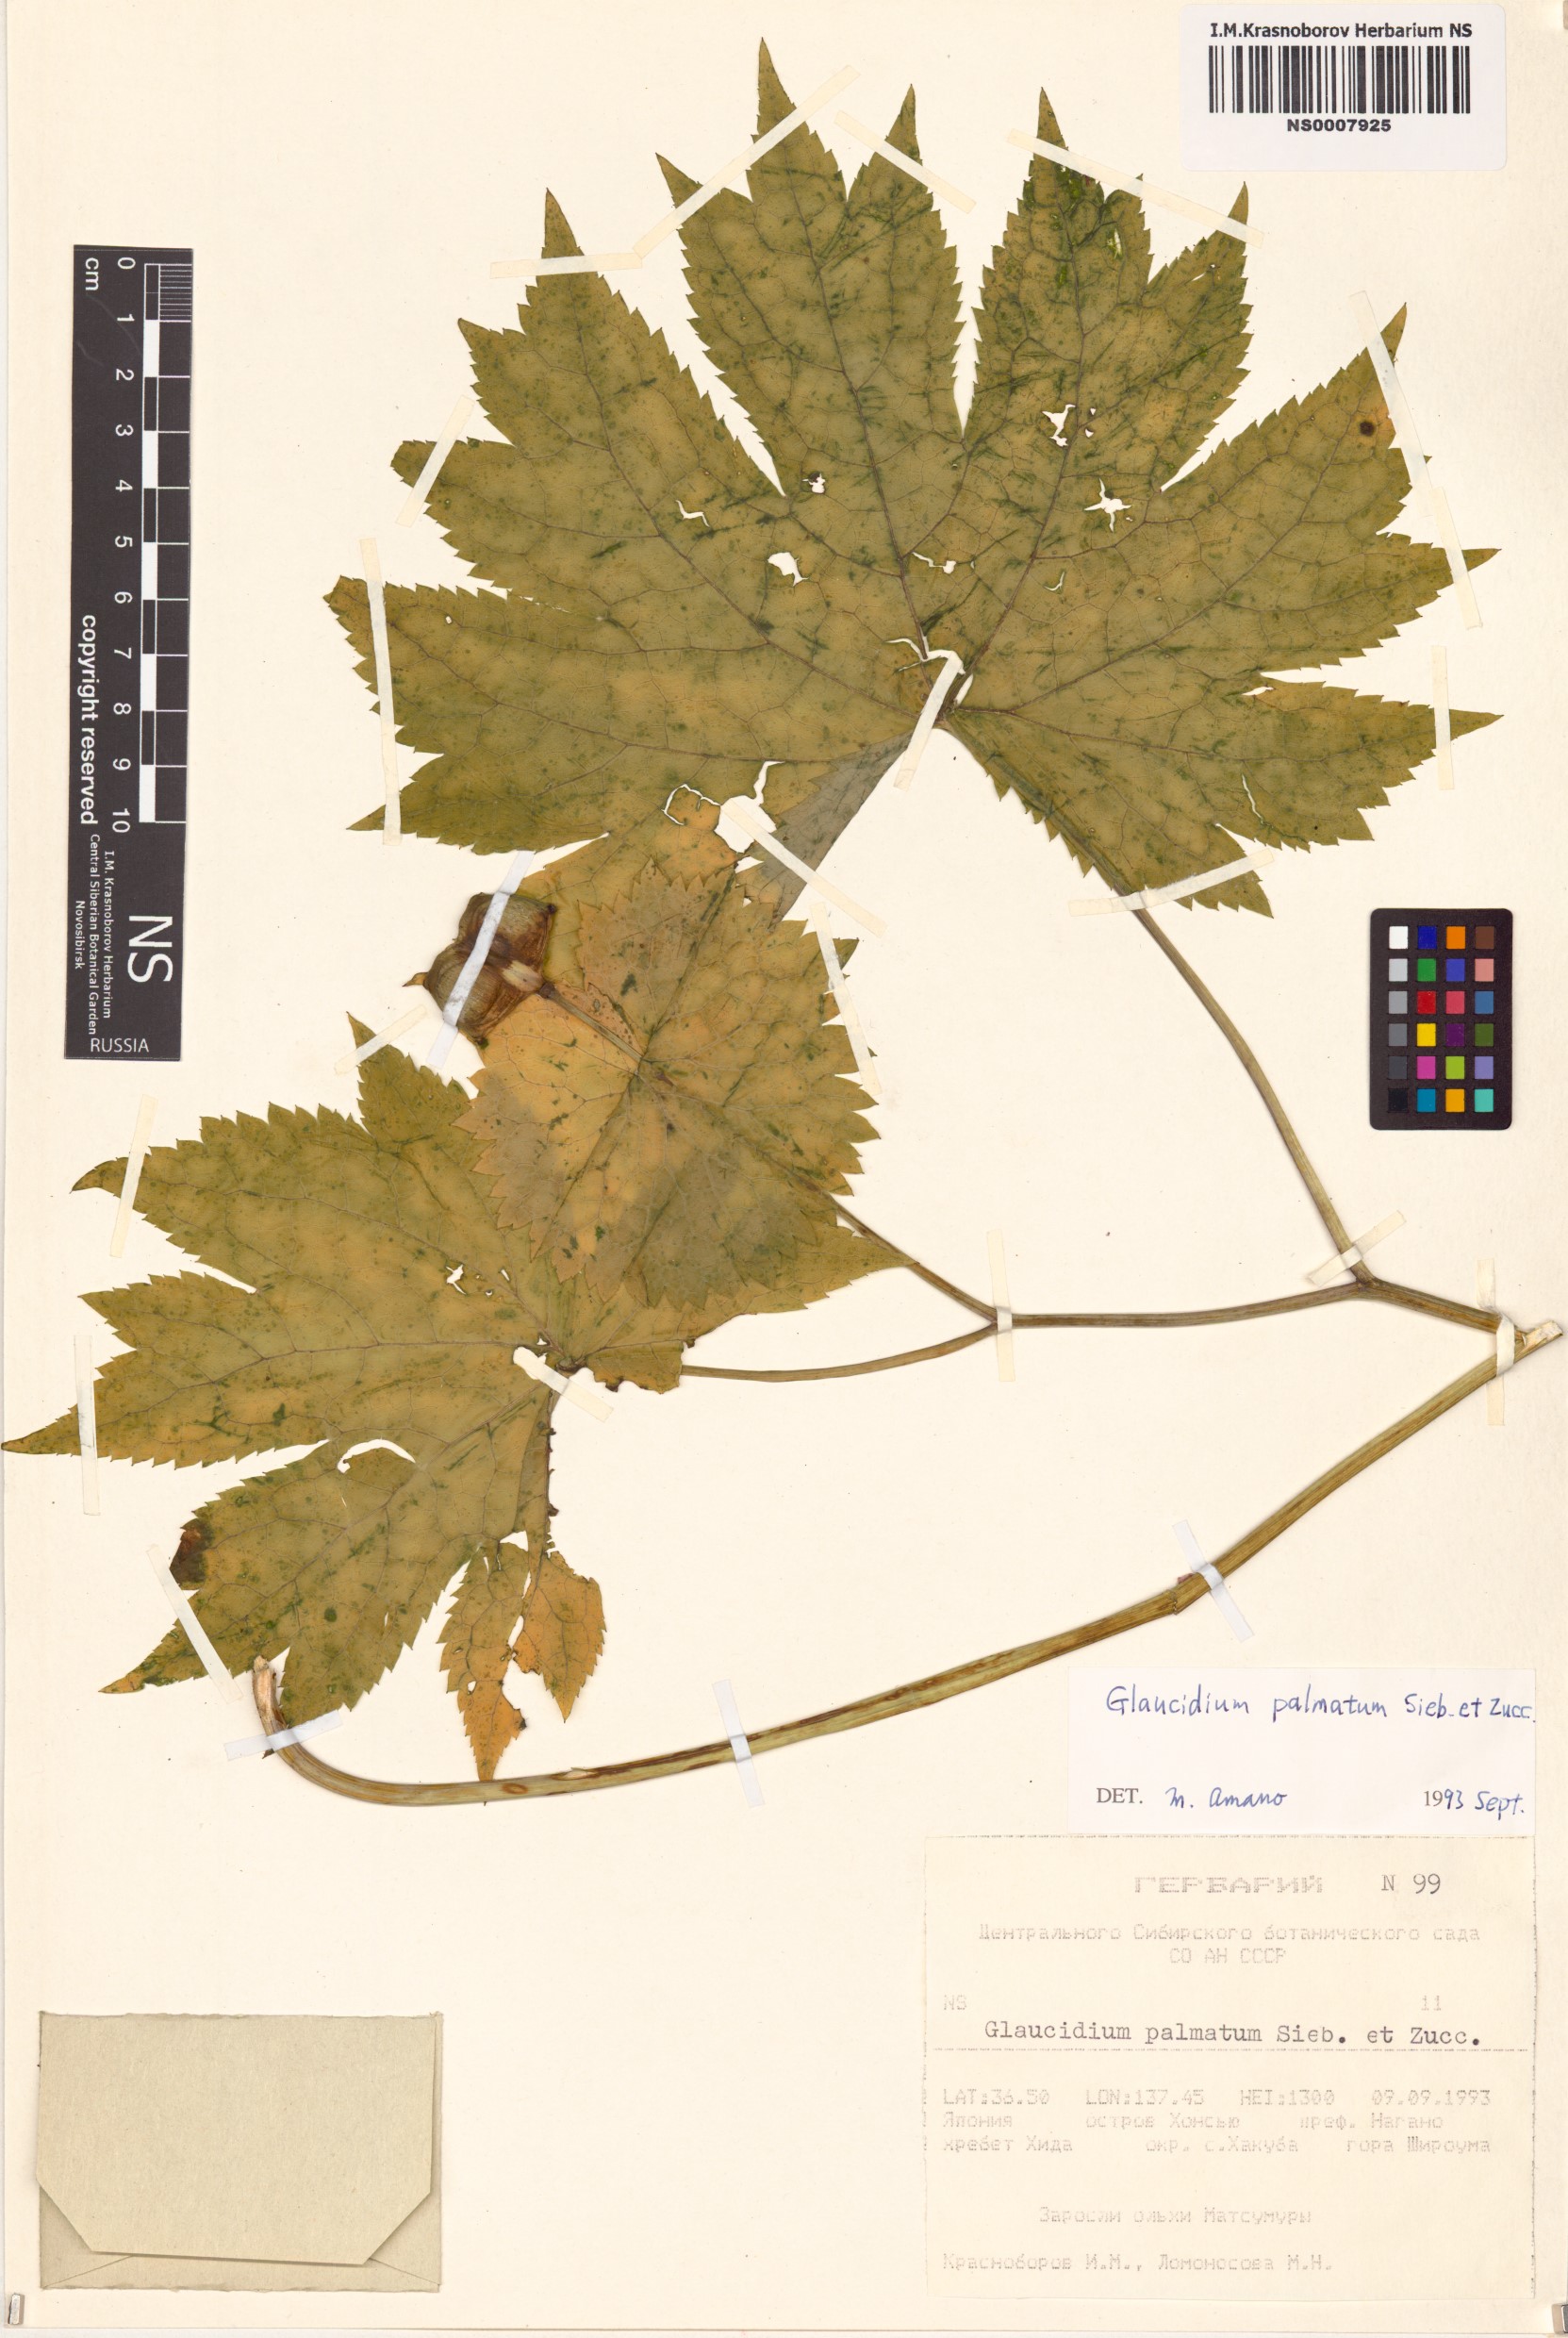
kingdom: Plantae
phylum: Tracheophyta
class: Magnoliopsida
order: Ranunculales
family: Ranunculaceae
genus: Glaucidium
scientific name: Glaucidium palmatum
